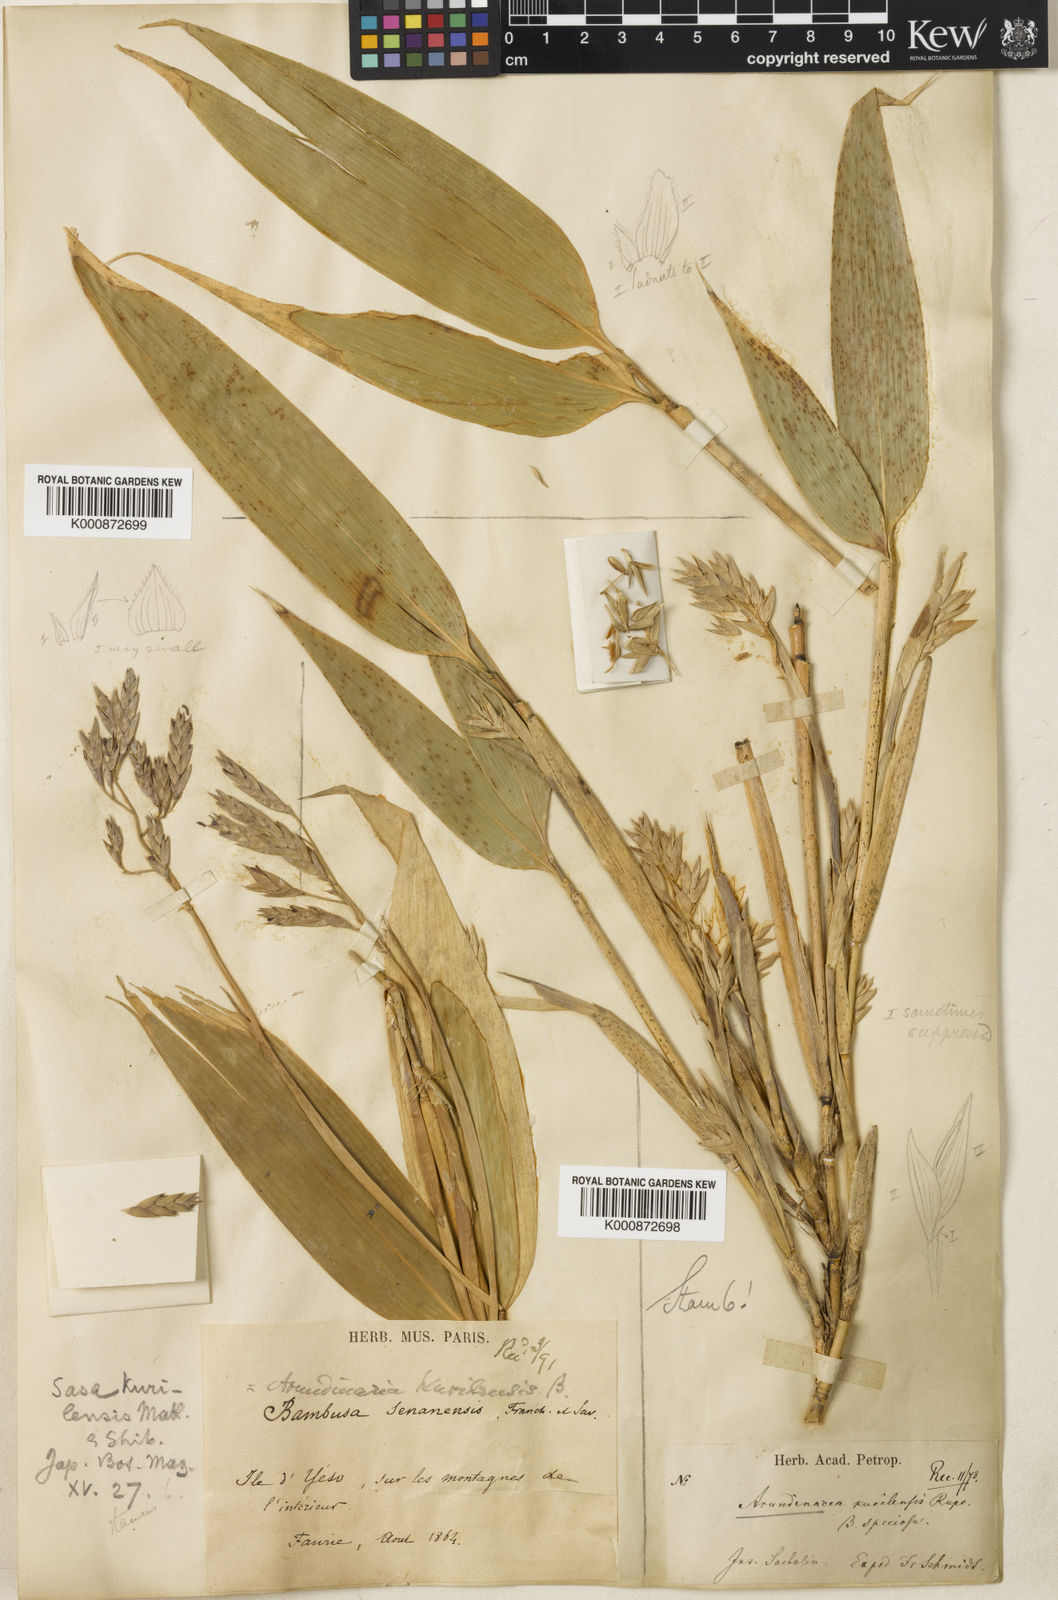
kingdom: Plantae
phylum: Tracheophyta
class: Liliopsida
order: Poales
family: Poaceae
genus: Sasa
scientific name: Sasa kurilensis
